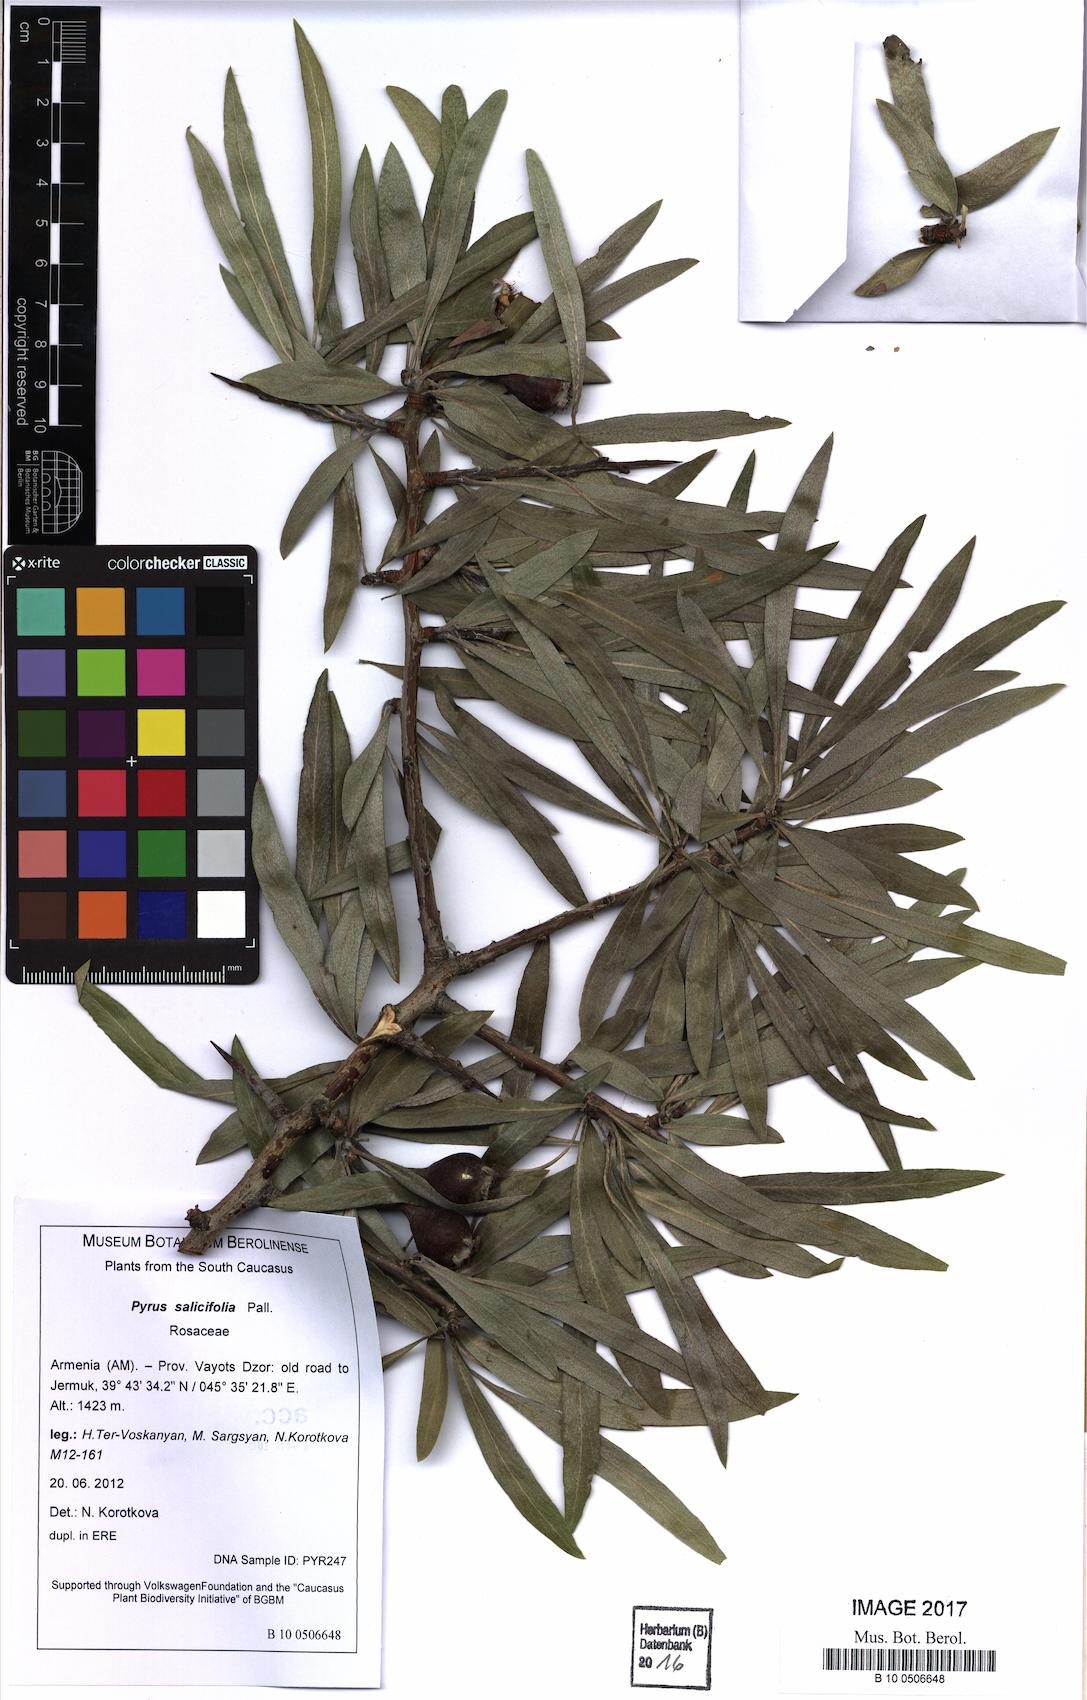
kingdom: Plantae
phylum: Tracheophyta
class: Magnoliopsida
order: Rosales
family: Rosaceae
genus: Pyrus
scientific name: Pyrus salicifolia
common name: Willow-leaved pear
